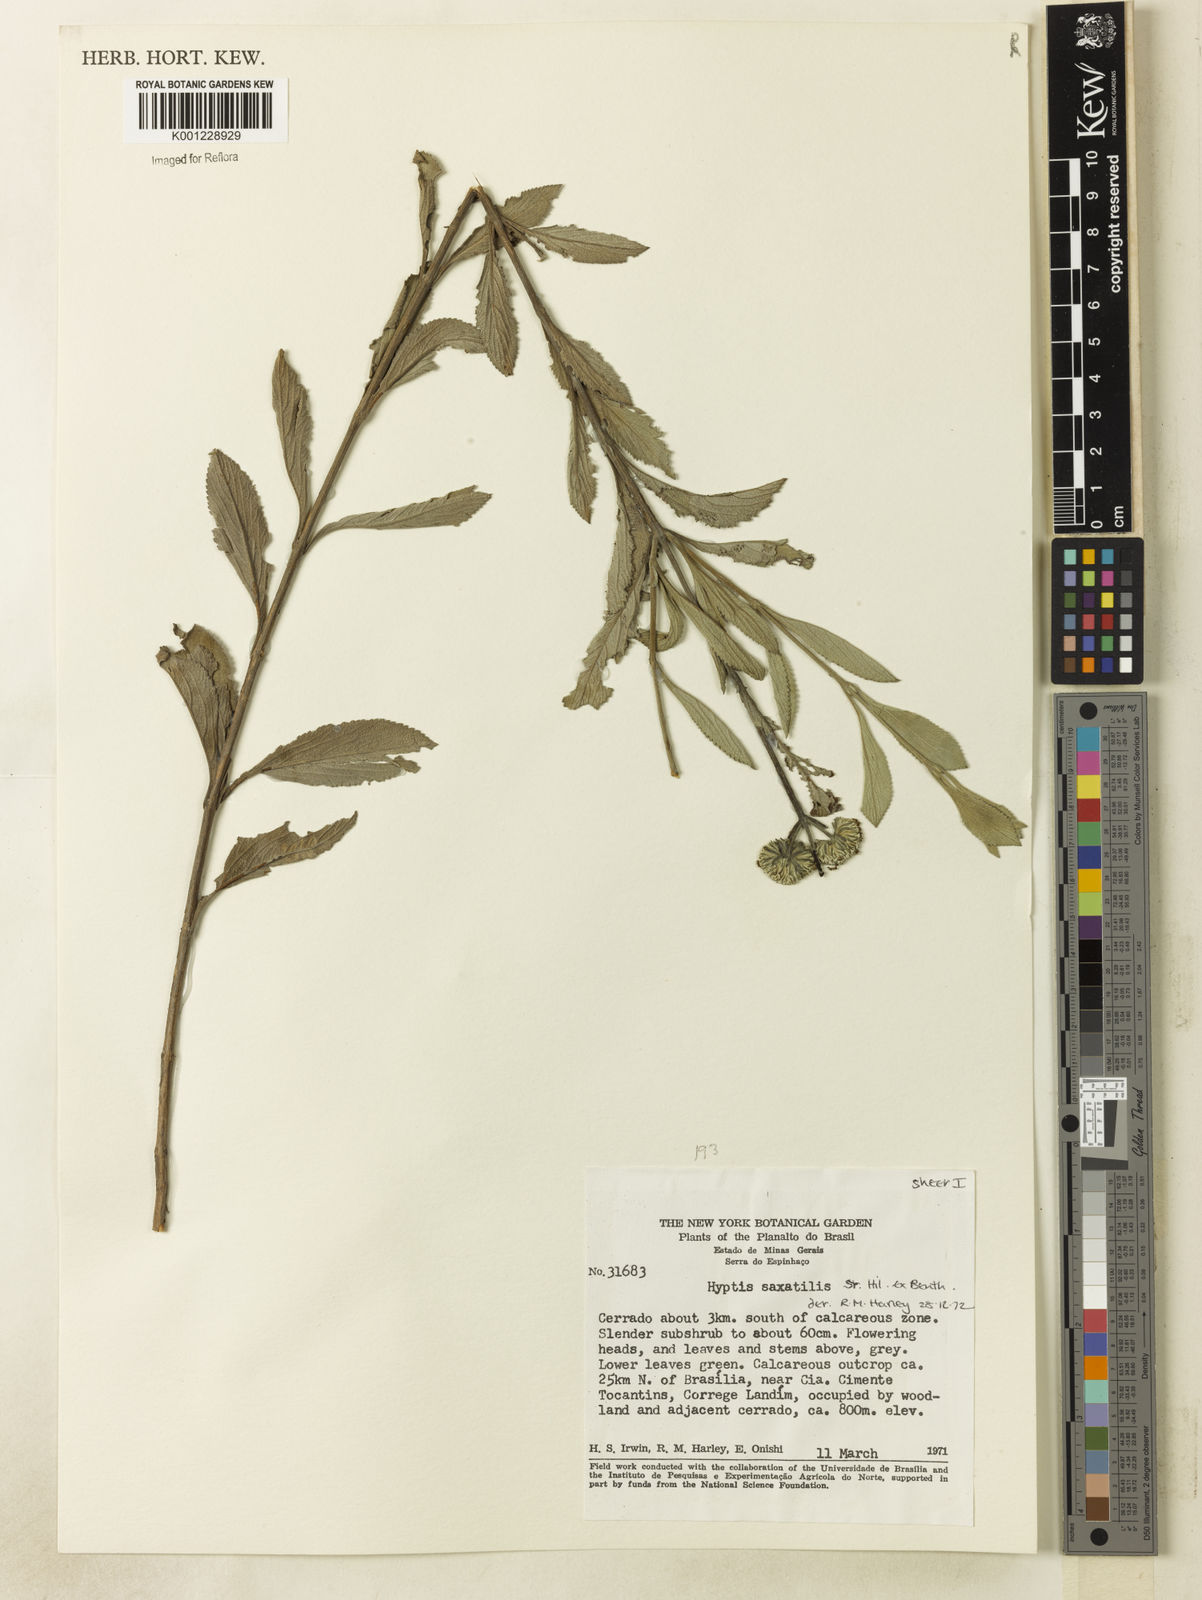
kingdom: Plantae
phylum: Tracheophyta
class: Magnoliopsida
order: Lamiales
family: Lamiaceae
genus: Hyptis
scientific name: Hyptis saxatilis
